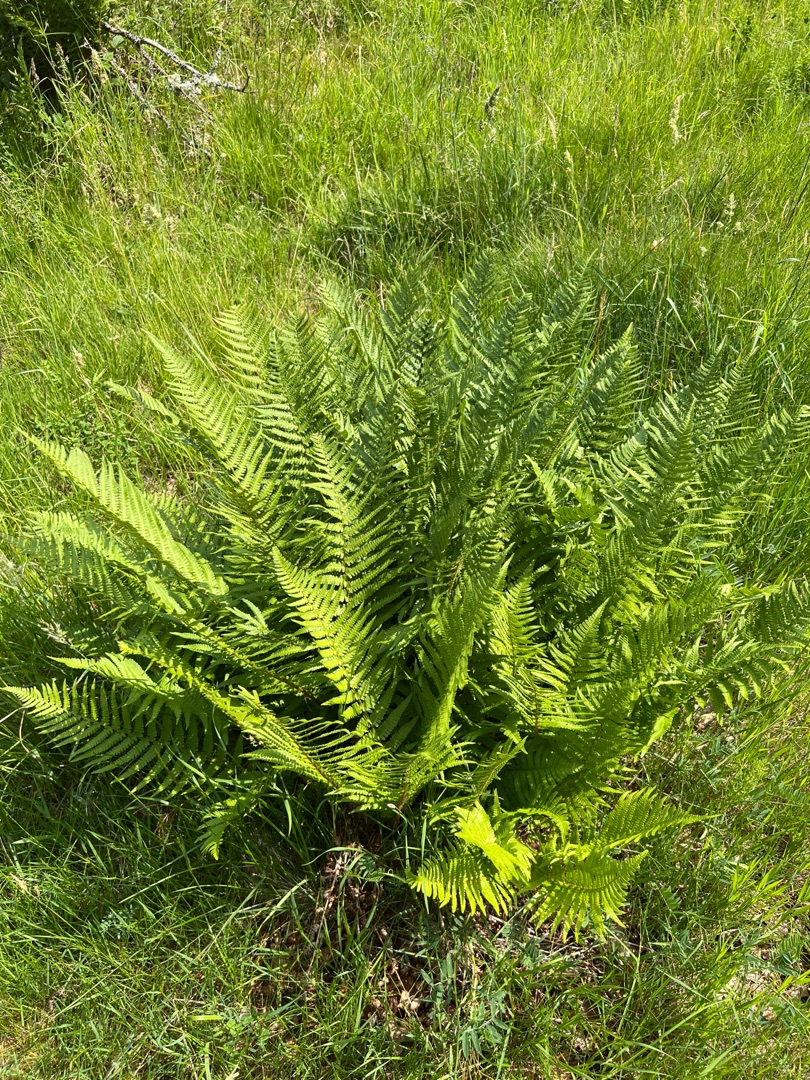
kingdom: Plantae
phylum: Tracheophyta
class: Polypodiopsida
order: Polypodiales
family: Dryopteridaceae
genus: Dryopteris
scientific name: Dryopteris filix-mas
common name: Almindelig mangeløv
